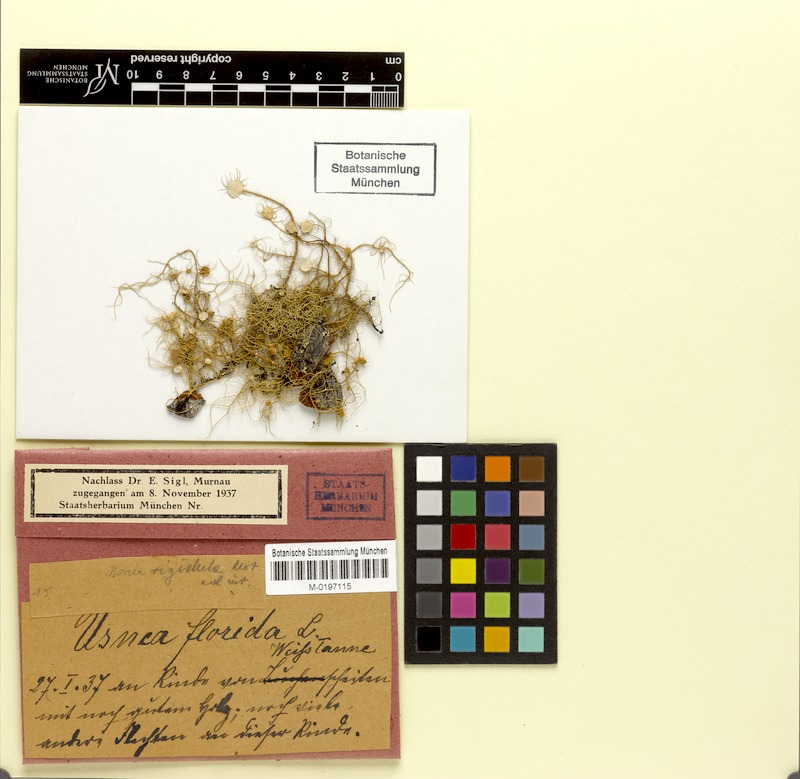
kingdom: Fungi
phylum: Ascomycota
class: Lecanoromycetes
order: Lecanorales
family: Parmeliaceae
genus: Usnea
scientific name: Usnea rigidula
